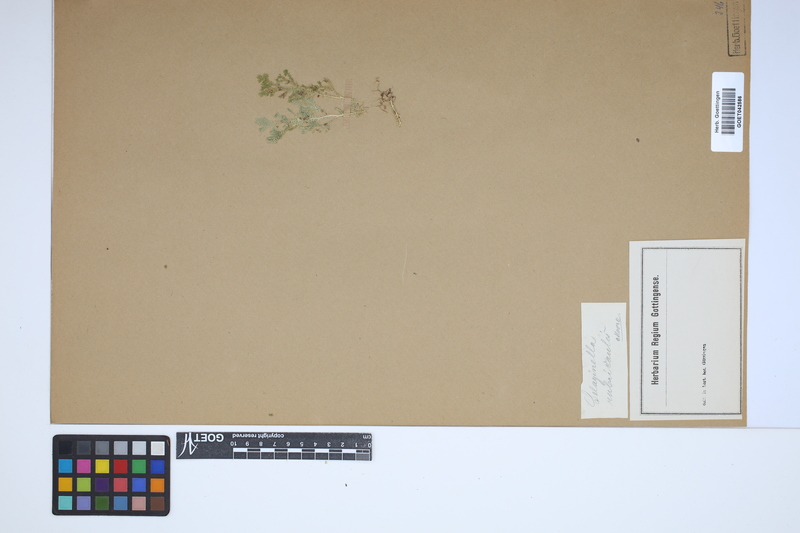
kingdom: Plantae
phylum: Tracheophyta
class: Lycopodiopsida
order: Selaginellales
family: Selaginellaceae
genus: Selaginella
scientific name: Selaginella molliceps
